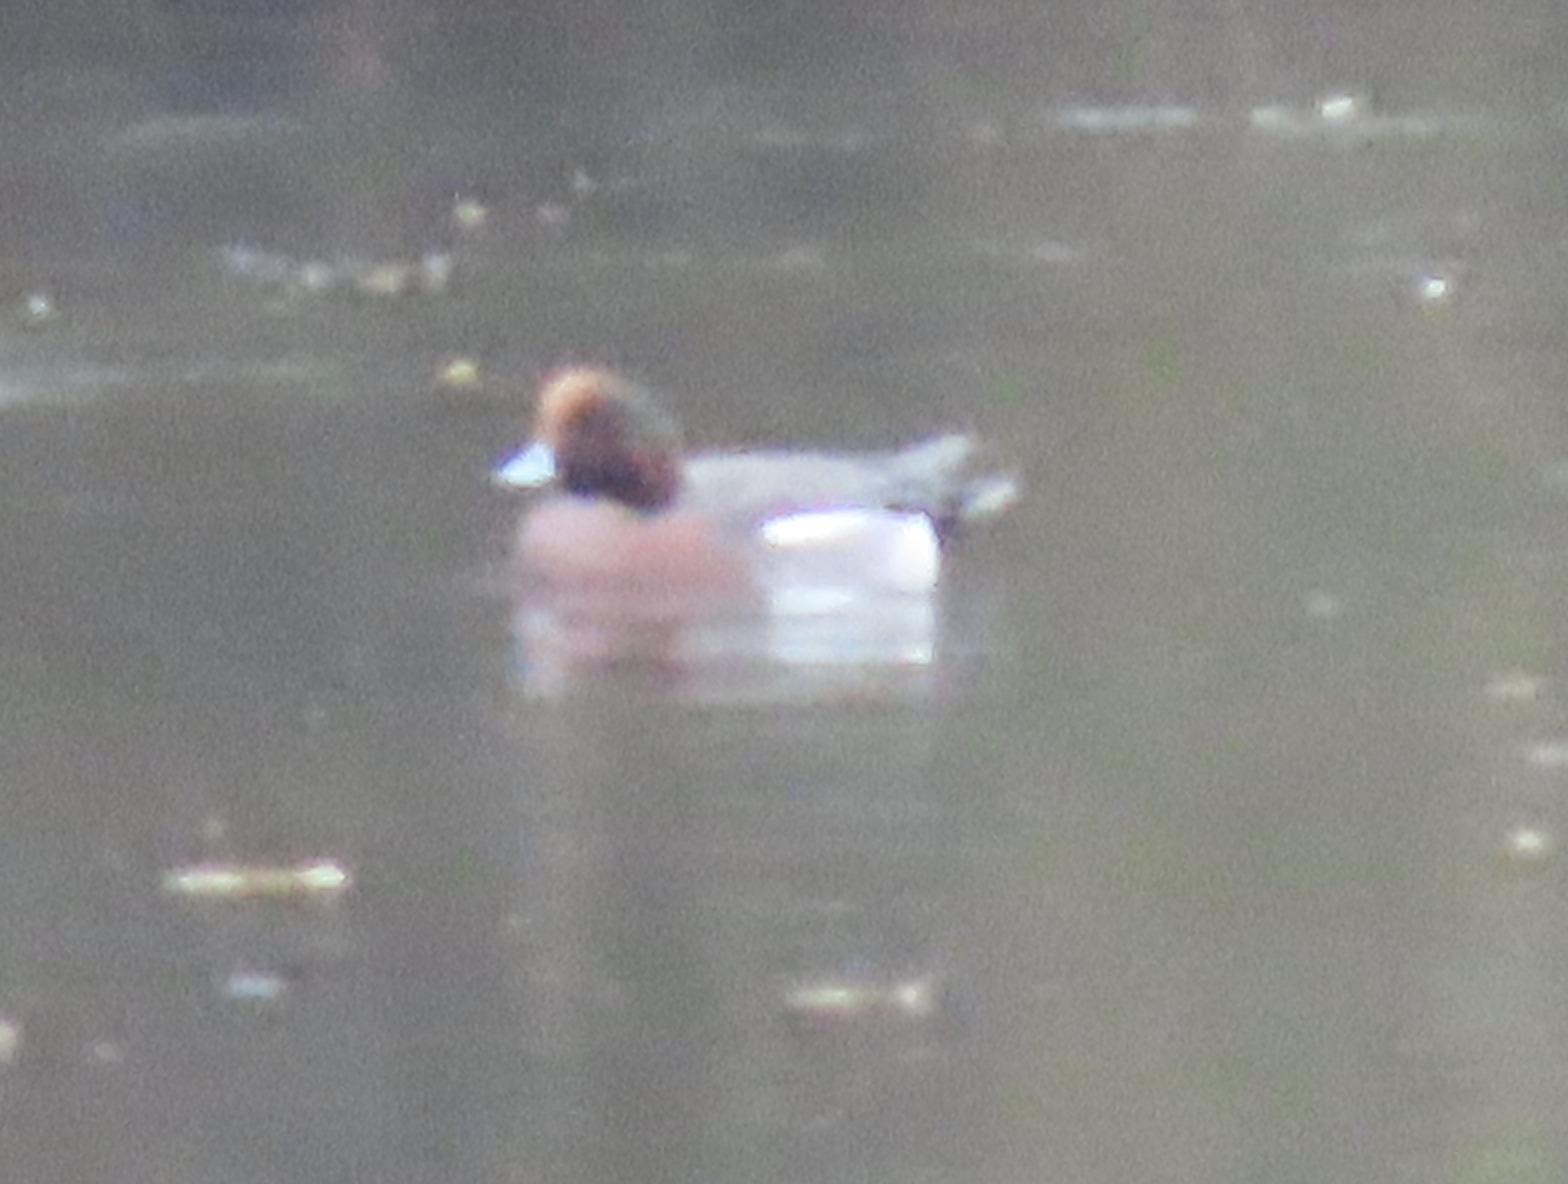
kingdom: Animalia
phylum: Chordata
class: Aves
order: Anseriformes
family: Anatidae
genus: Mareca
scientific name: Mareca penelope
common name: Pibeand
